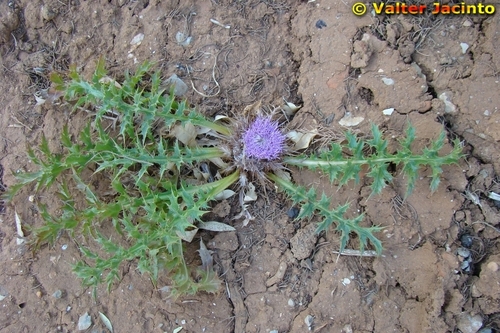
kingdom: Plantae
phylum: Tracheophyta
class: Magnoliopsida
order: Asterales
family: Asteraceae
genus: Chamaeleon
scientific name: Chamaeleon gummifer
